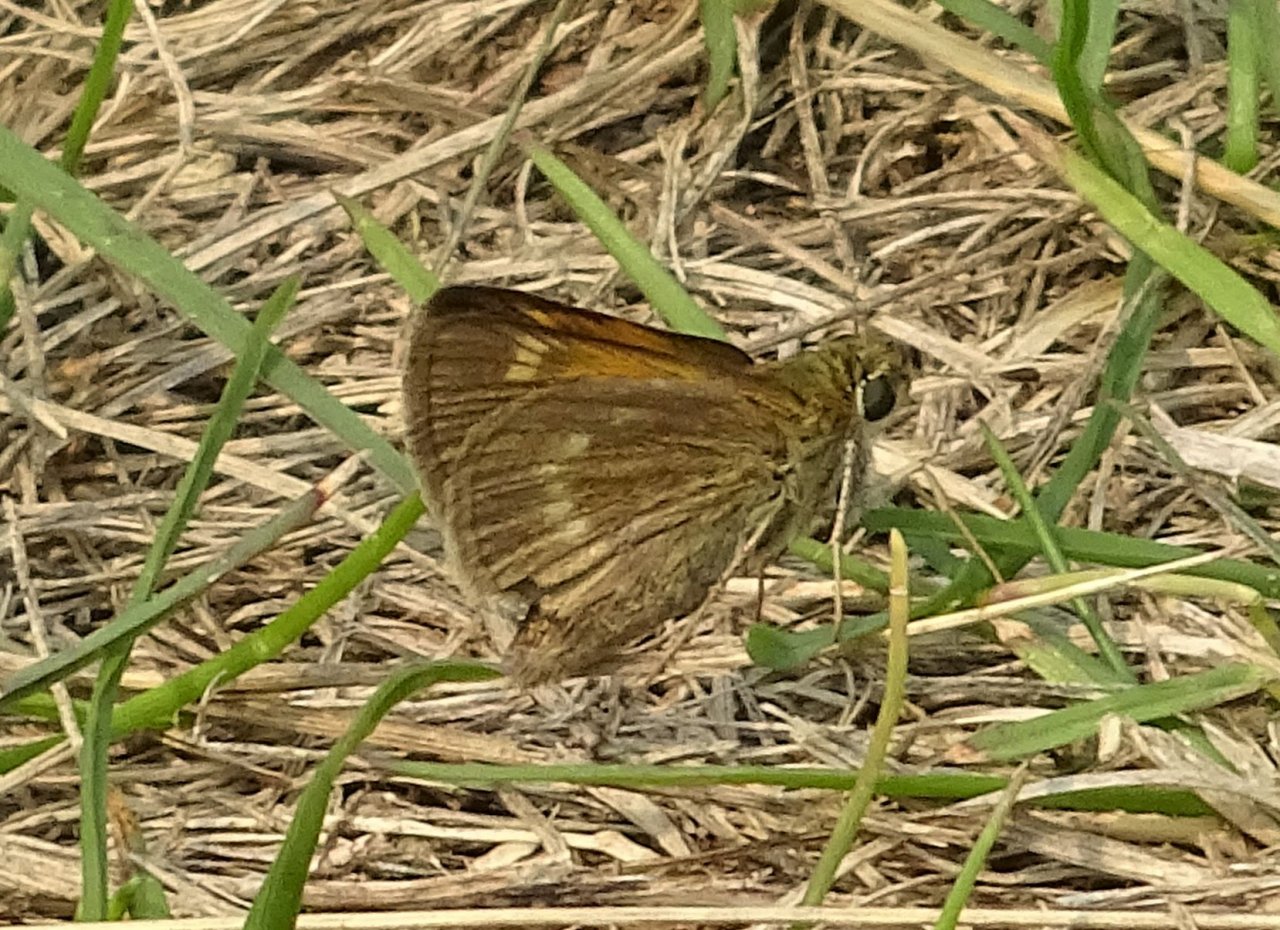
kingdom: Animalia
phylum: Arthropoda
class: Insecta
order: Lepidoptera
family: Hesperiidae
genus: Polites
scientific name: Polites themistocles
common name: Tawny-edged Skipper
